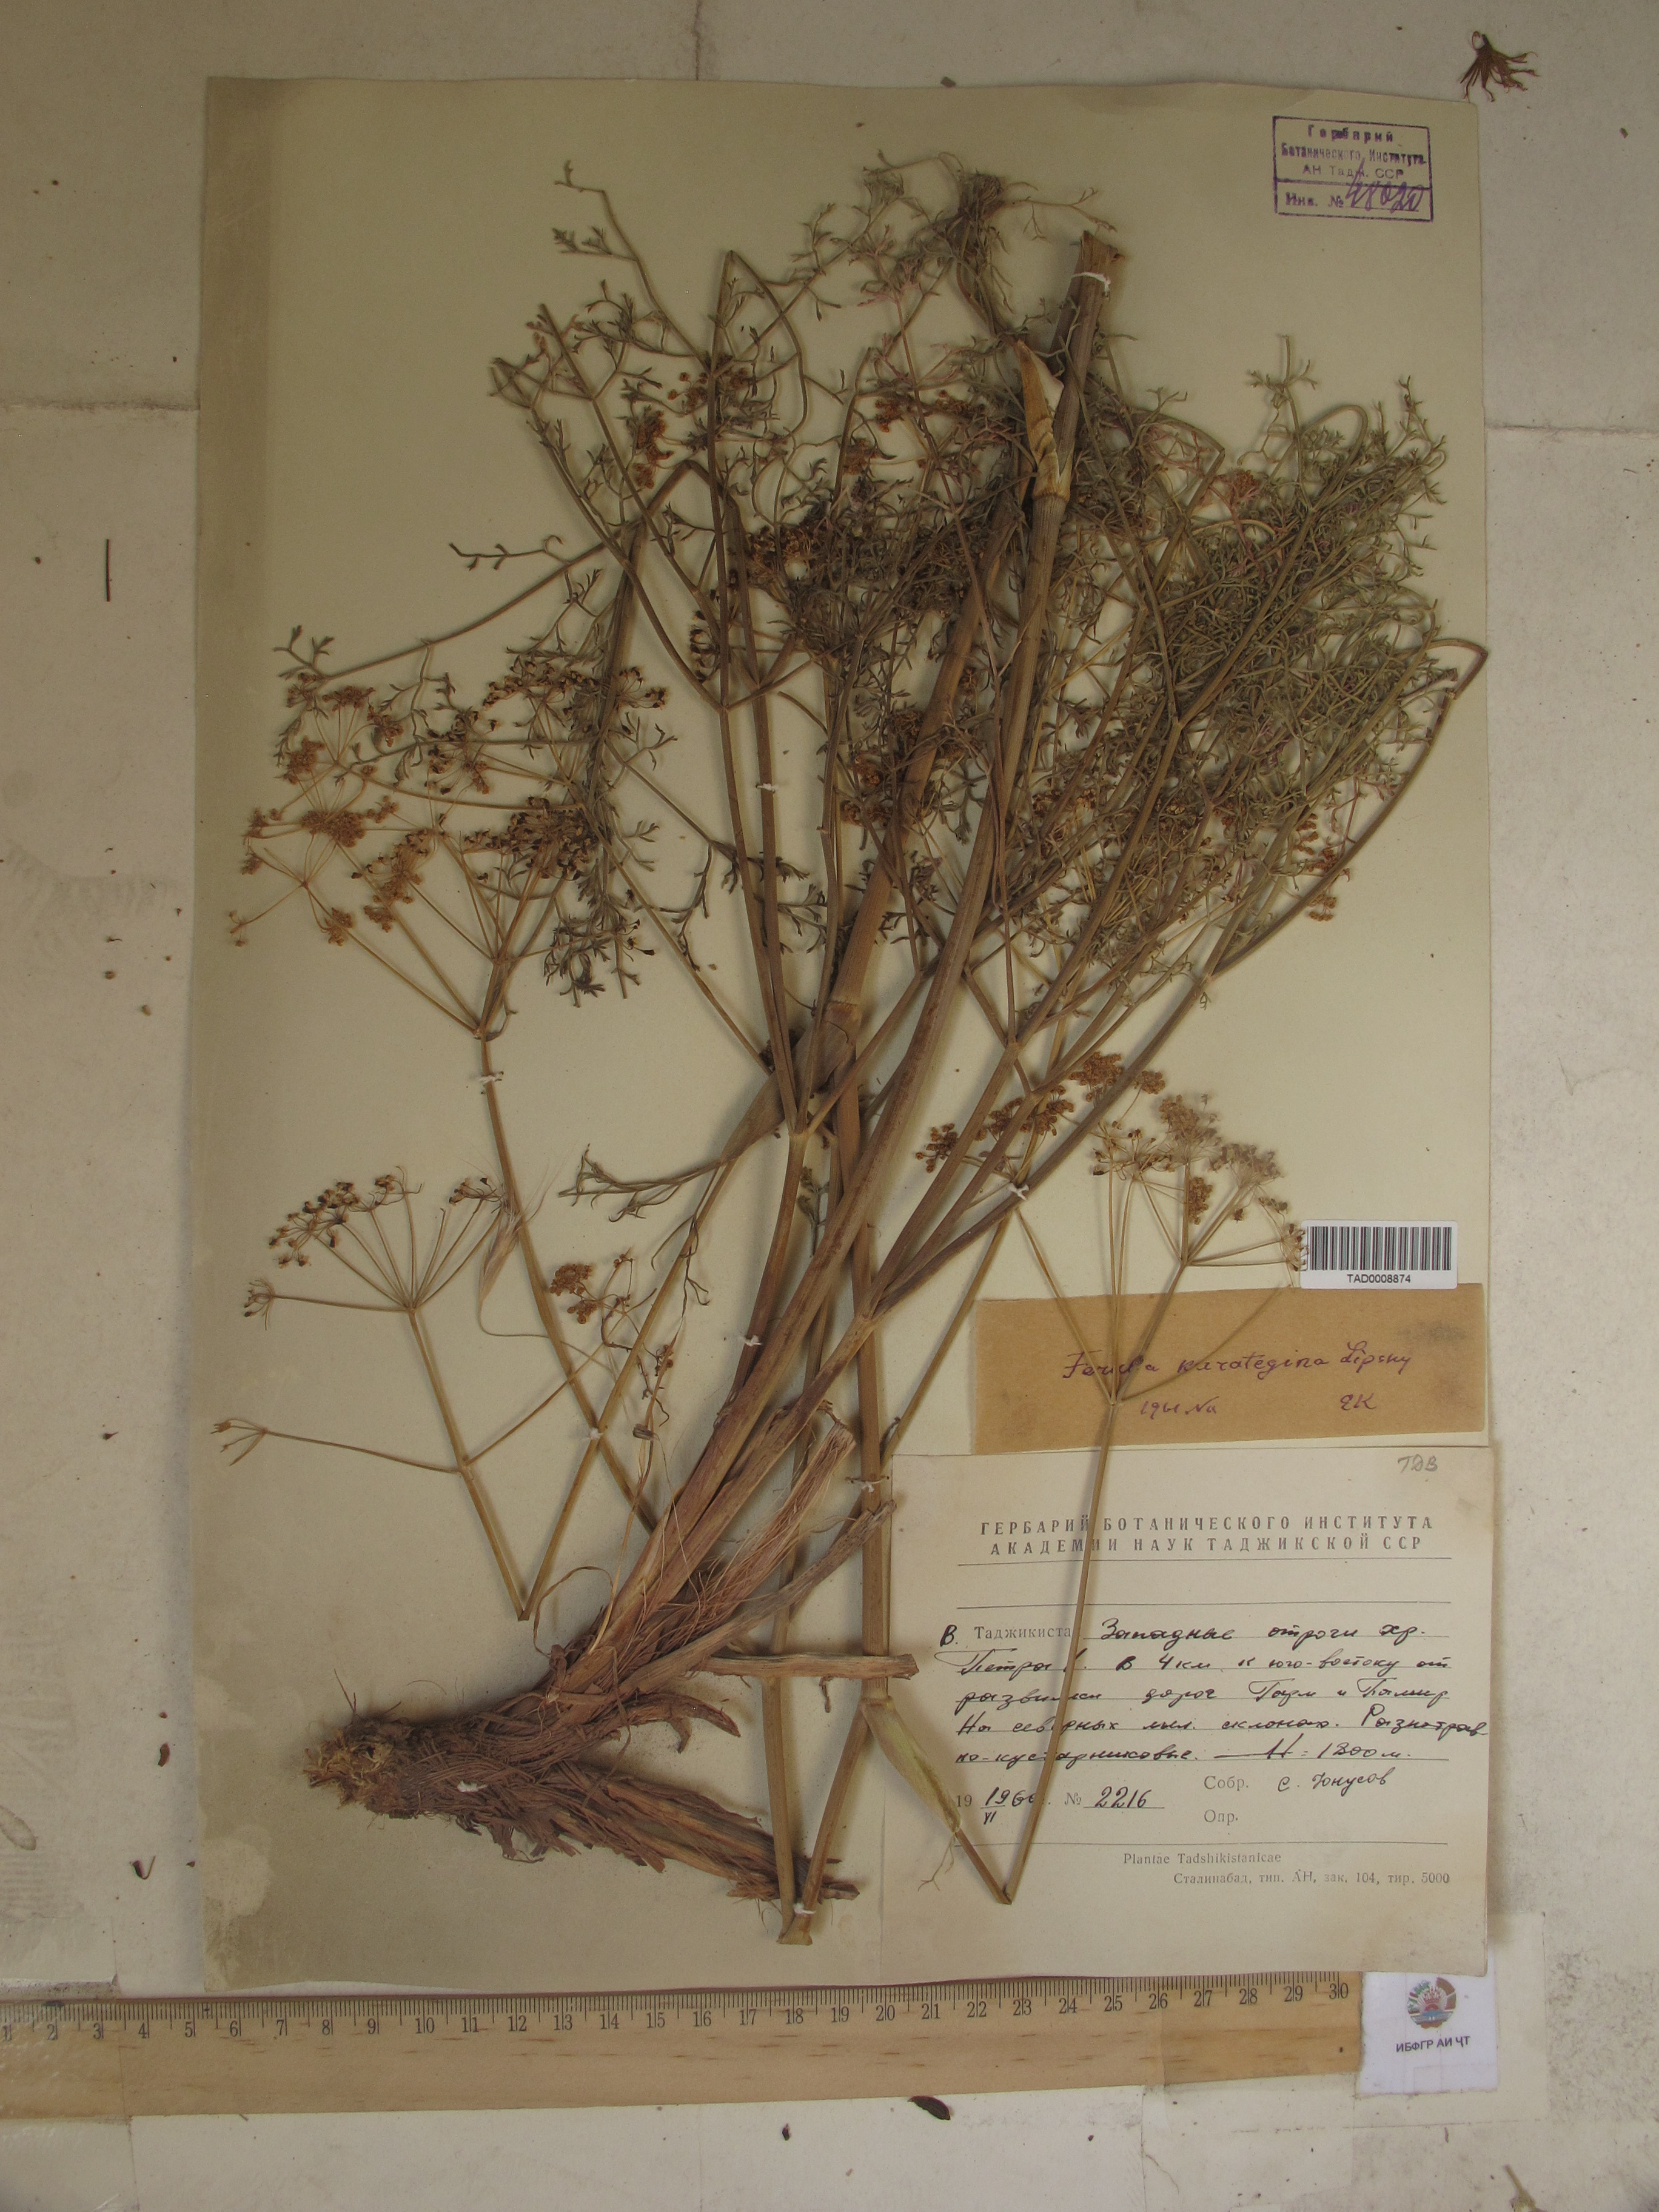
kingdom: Plantae
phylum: Tracheophyta
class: Magnoliopsida
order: Apiales
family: Apiaceae
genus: Ferula
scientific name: Ferula karategina
